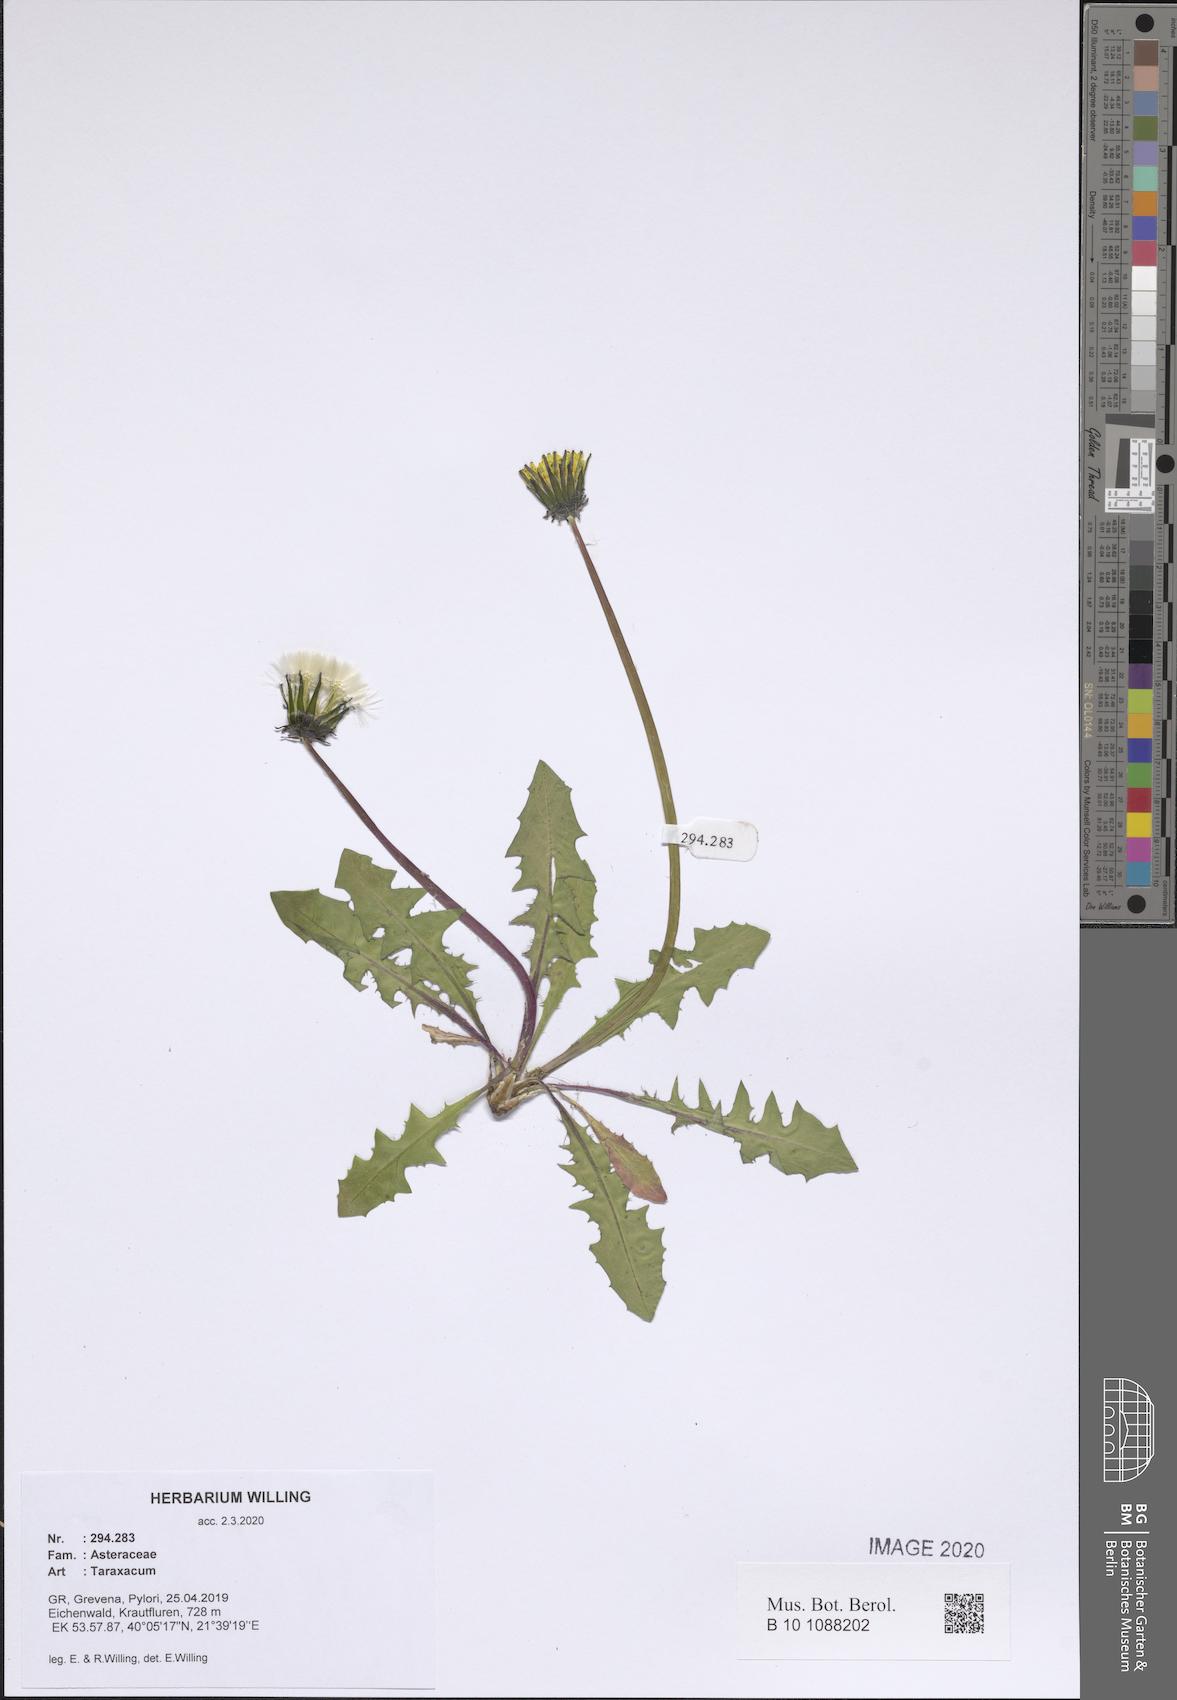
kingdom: Plantae
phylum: Tracheophyta
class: Magnoliopsida
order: Asterales
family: Asteraceae
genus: Taraxacum
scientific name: Taraxacum
